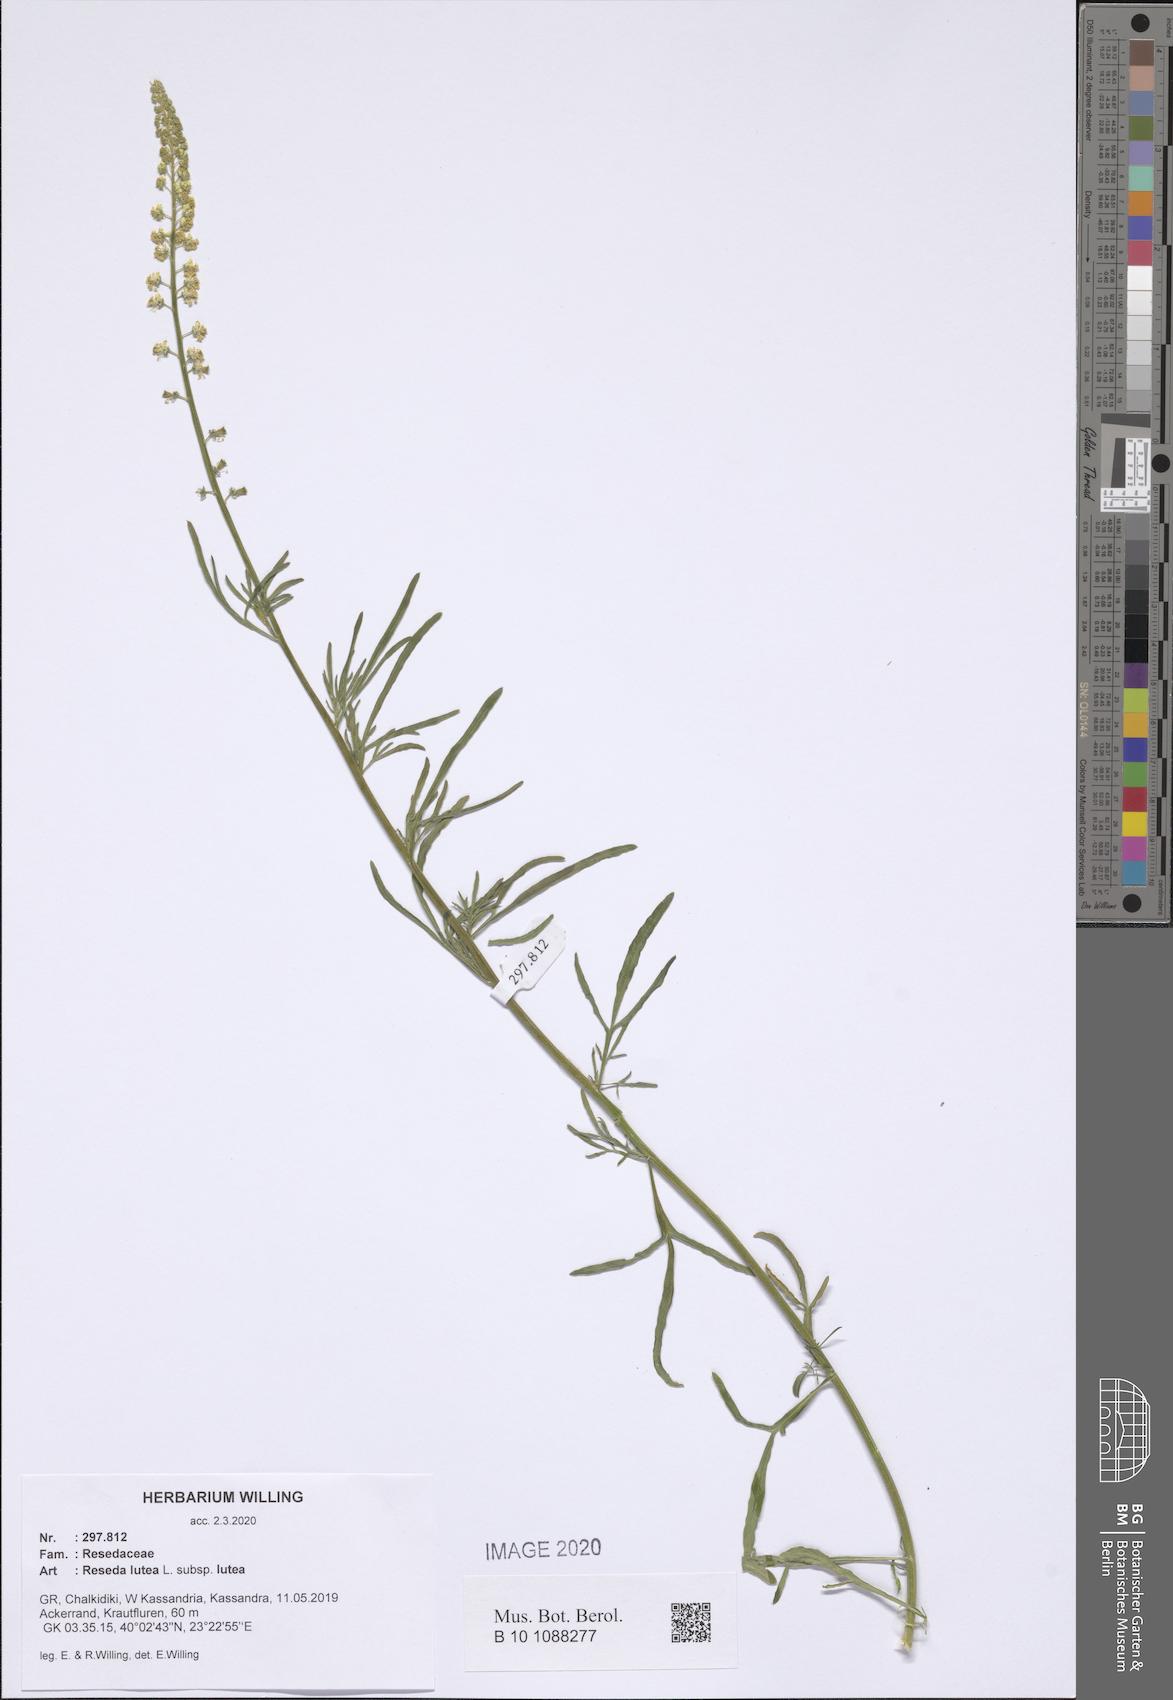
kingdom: Plantae
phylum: Tracheophyta
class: Magnoliopsida
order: Brassicales
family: Resedaceae
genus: Reseda
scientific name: Reseda lutea
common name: Wild mignonette
